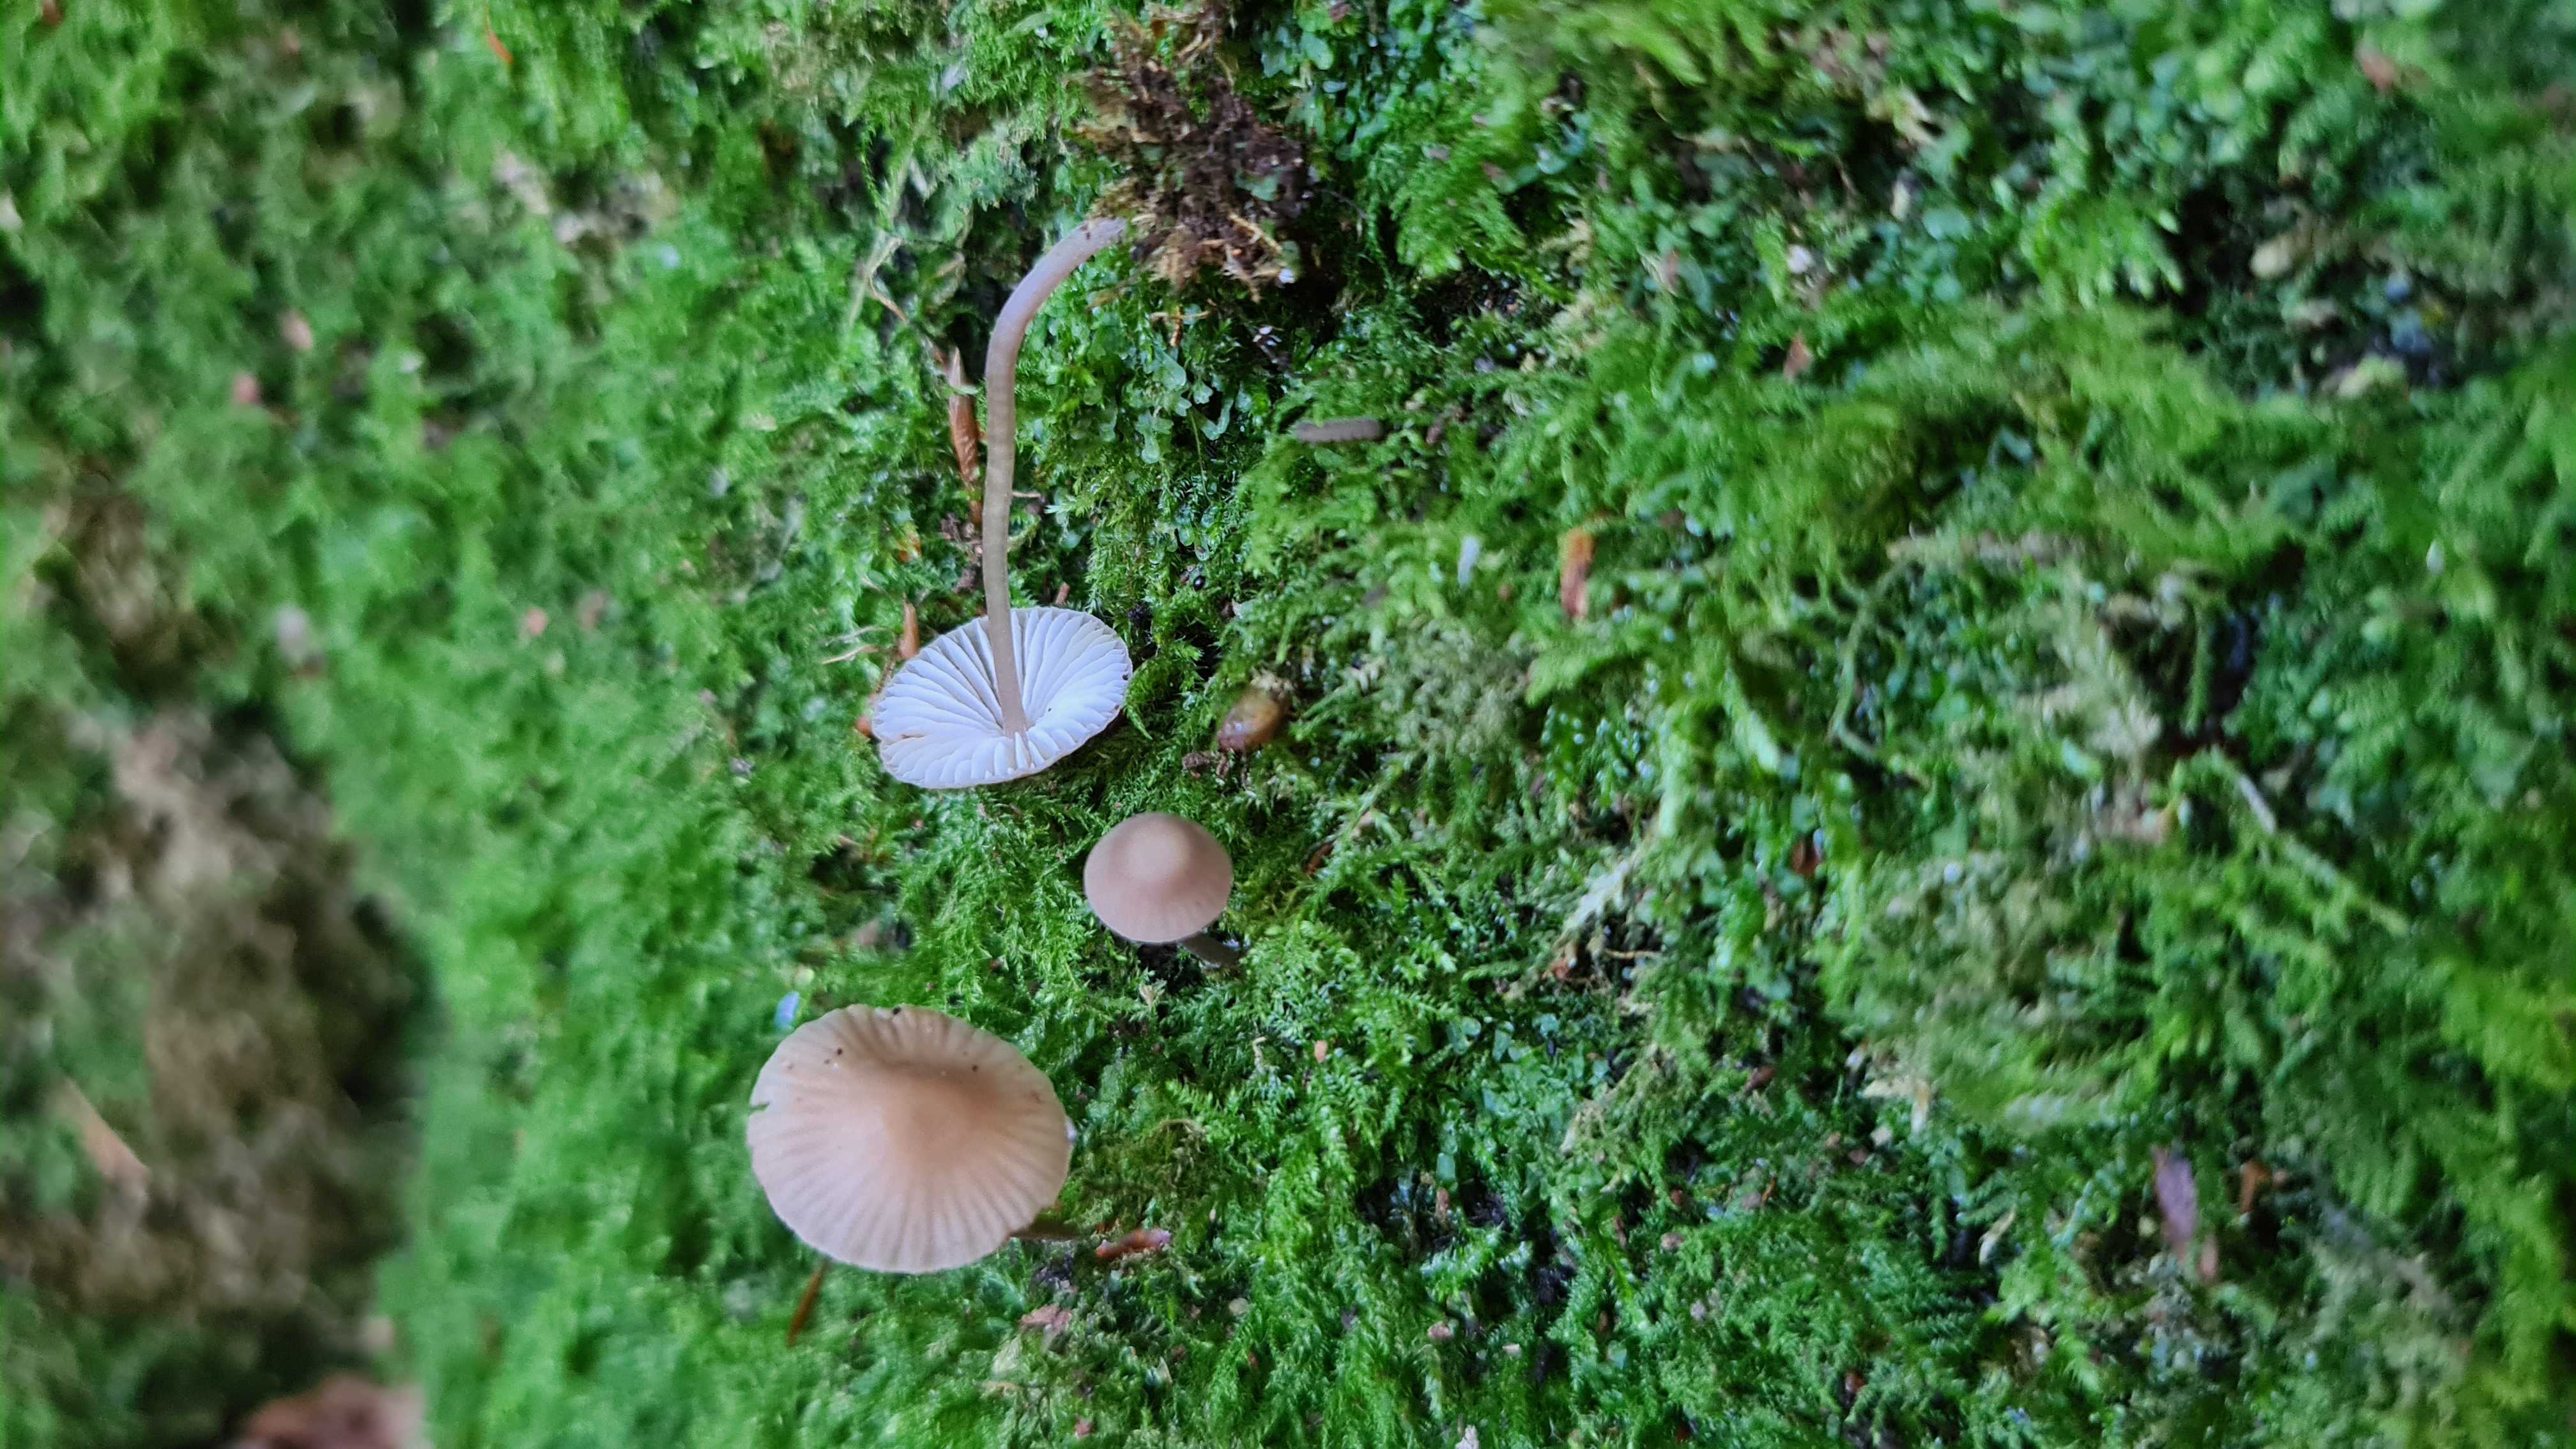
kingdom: Fungi
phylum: Basidiomycota
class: Agaricomycetes
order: Agaricales
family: Mycenaceae
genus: Mycena
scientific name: Mycena erubescens
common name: galde-huesvamp
